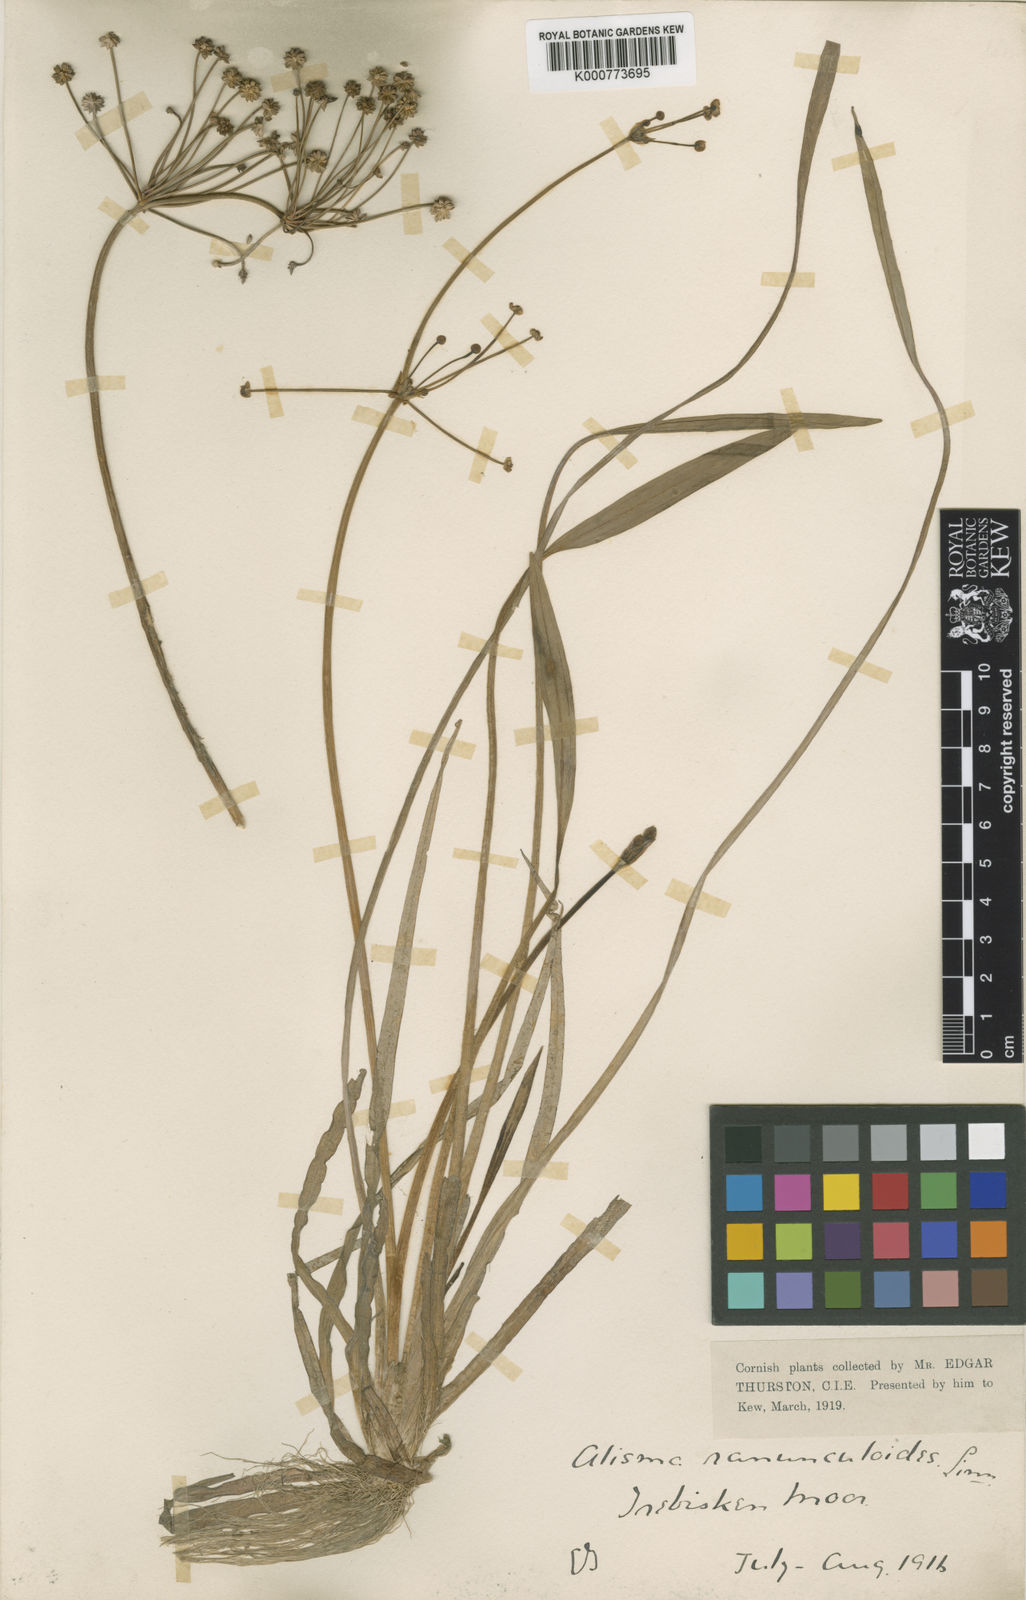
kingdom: Plantae
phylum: Tracheophyta
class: Liliopsida
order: Alismatales
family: Alismataceae
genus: Baldellia
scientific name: Baldellia ranunculoides
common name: Lesser water-plantain
